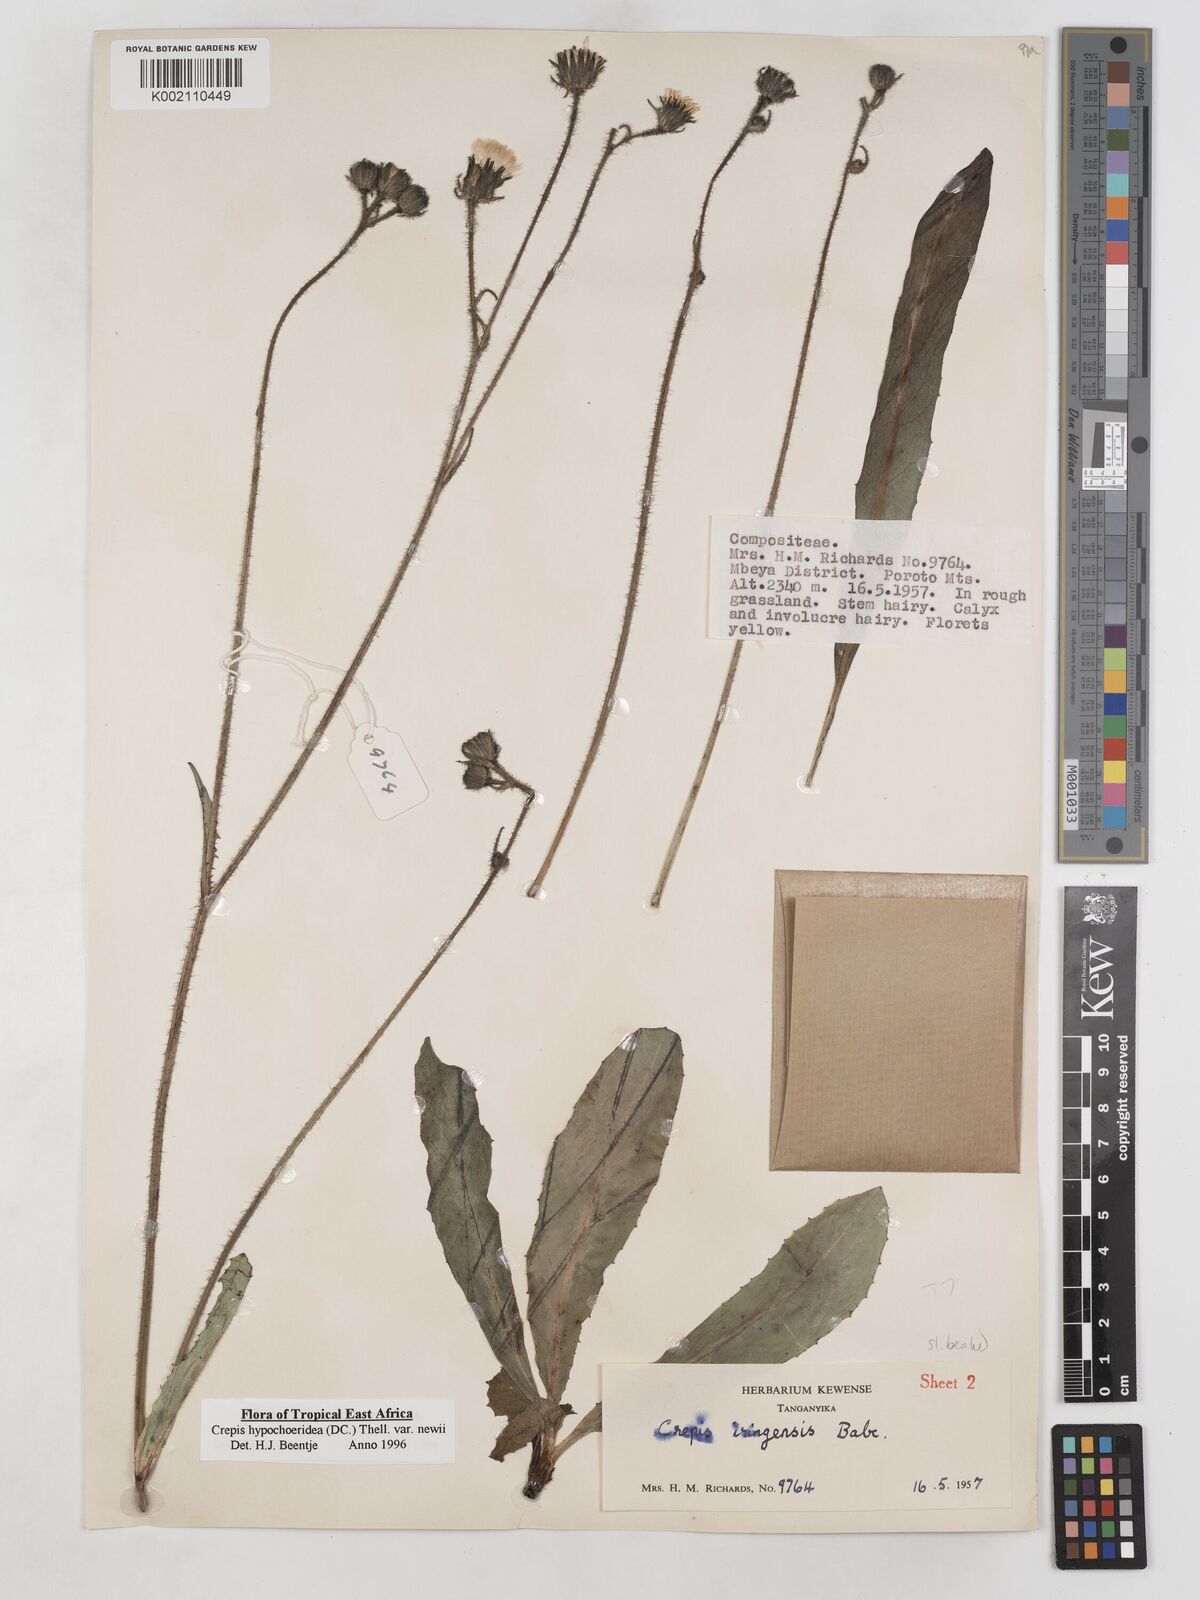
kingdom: Plantae
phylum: Tracheophyta
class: Magnoliopsida
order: Asterales
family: Asteraceae
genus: Crepis
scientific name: Crepis hypochoeridea
